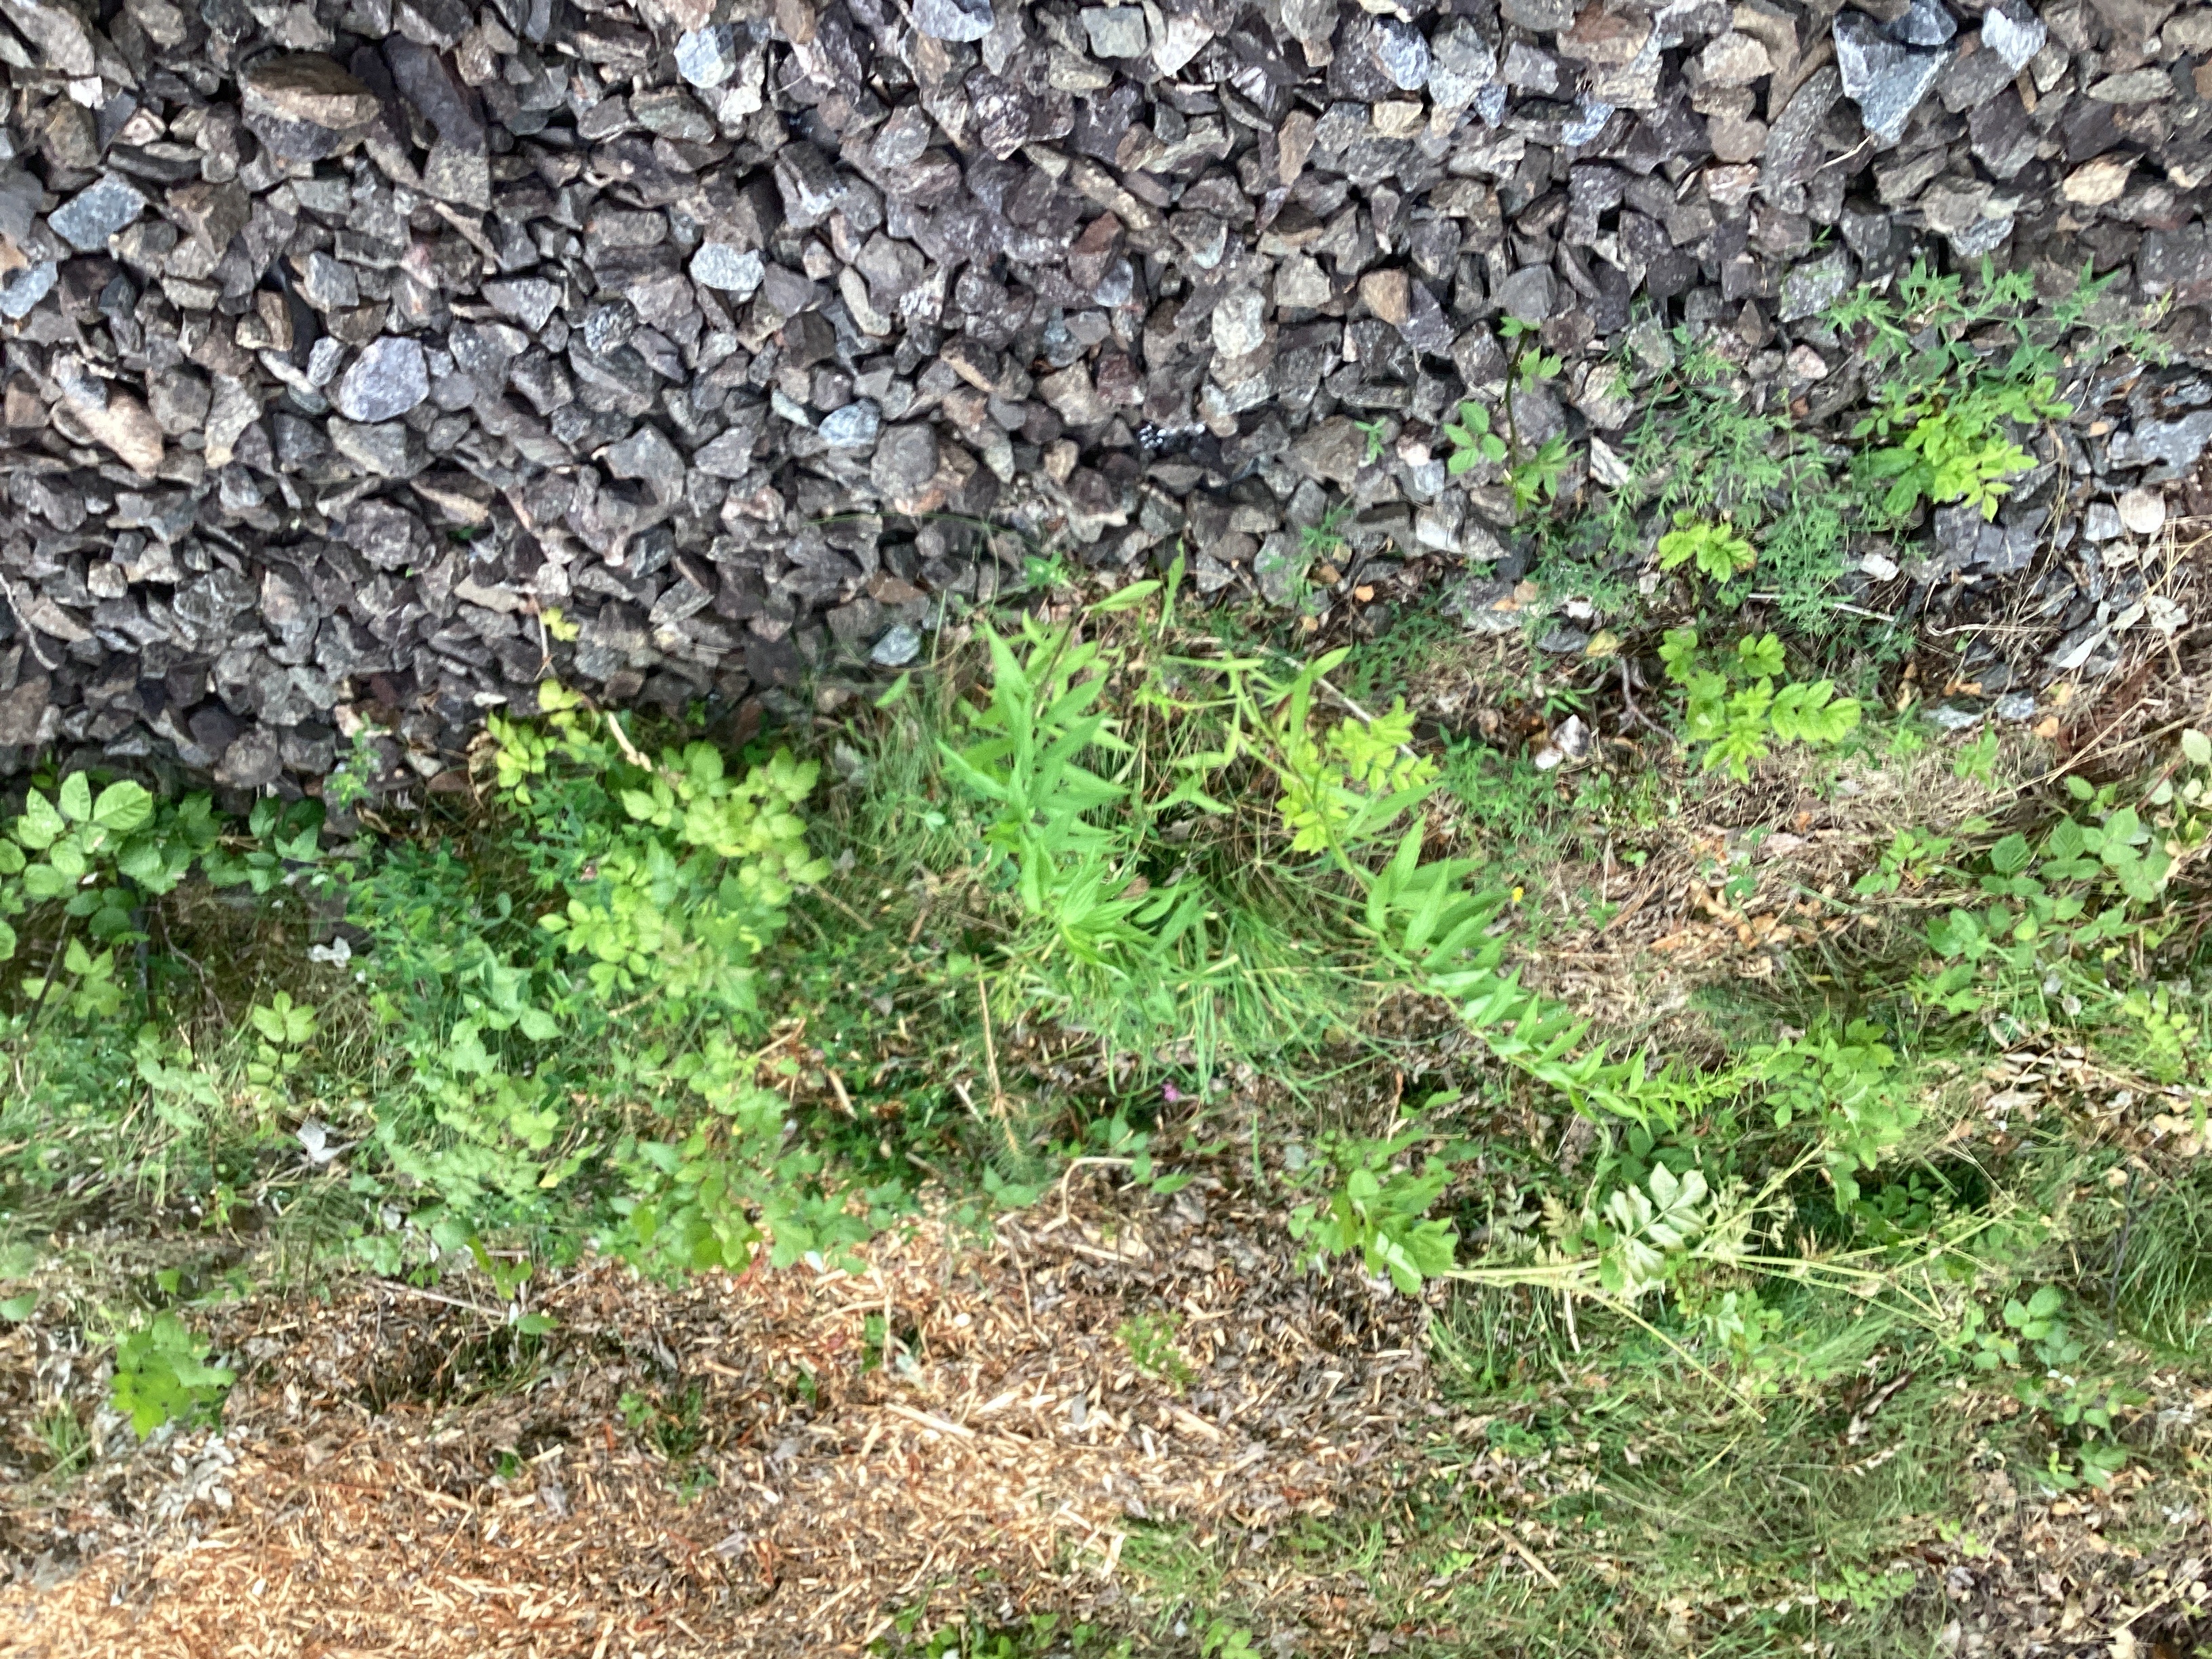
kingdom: Plantae
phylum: Tracheophyta
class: Magnoliopsida
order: Asterales
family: Asteraceae
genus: Solidago
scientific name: Solidago canadensis
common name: kanadagullris
